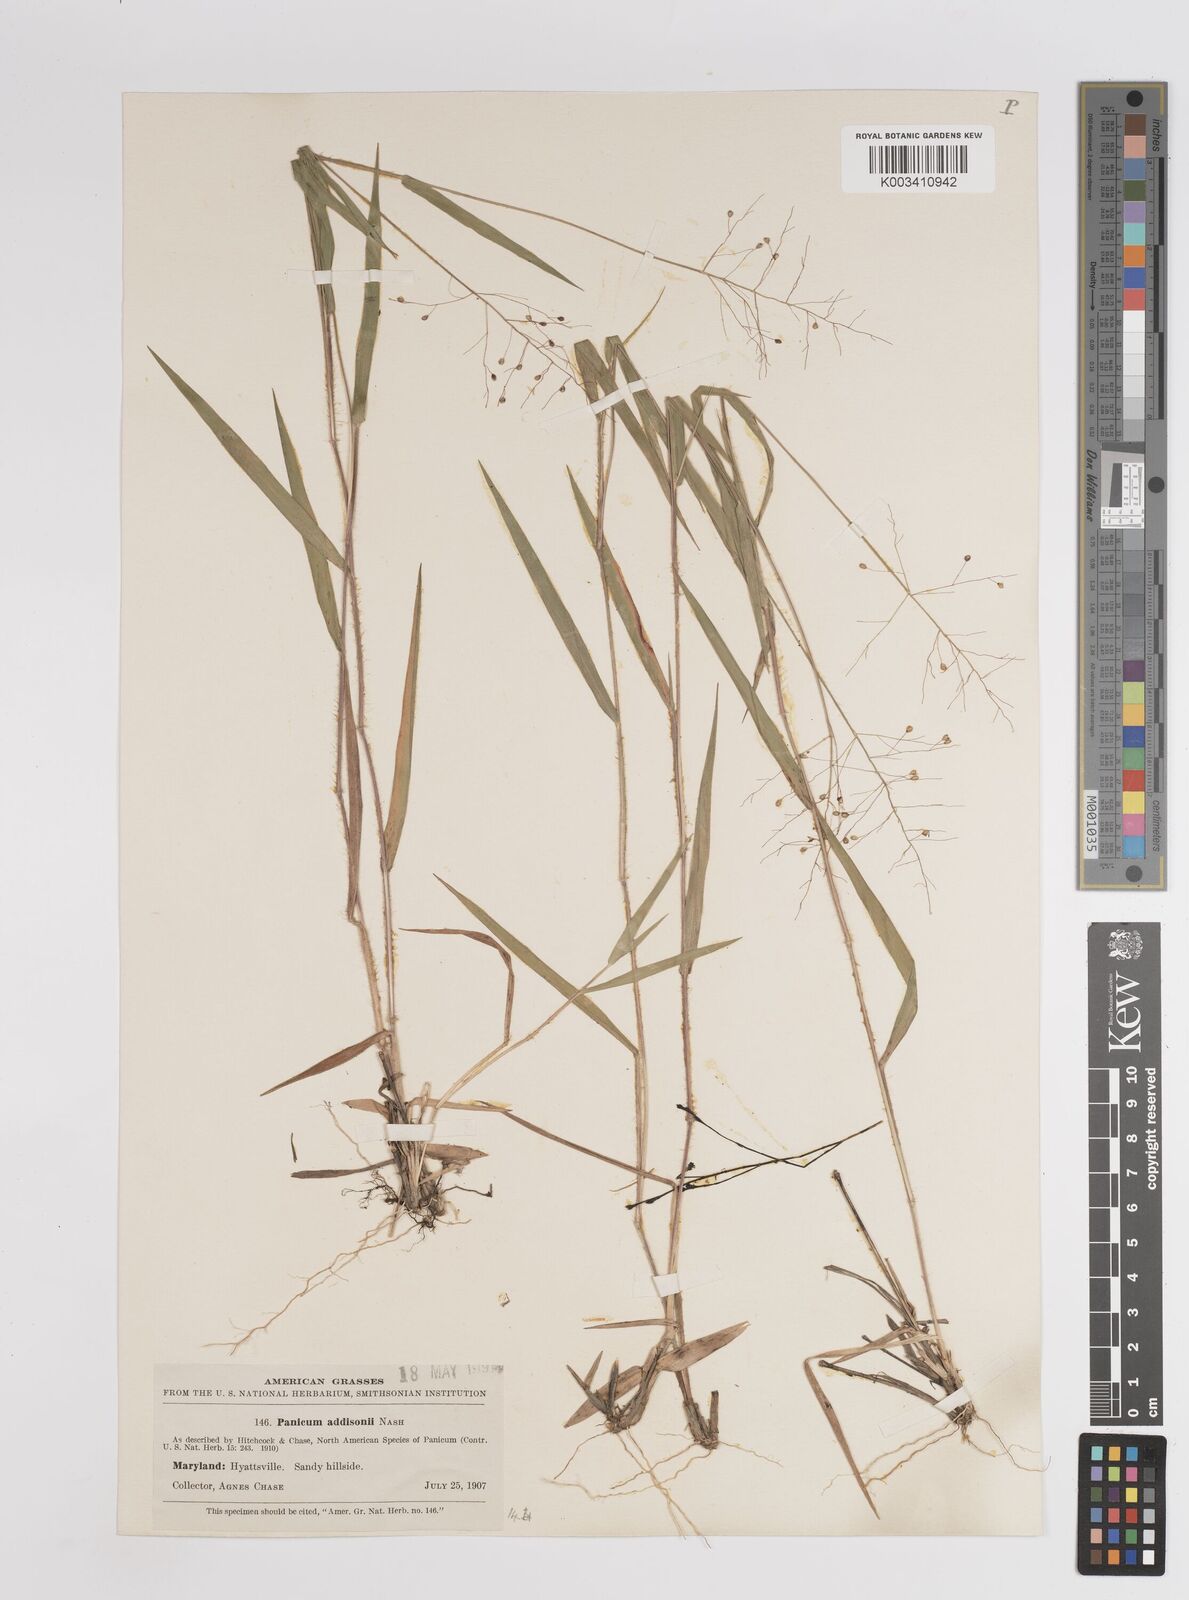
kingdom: Plantae
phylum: Tracheophyta
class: Liliopsida
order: Poales
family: Poaceae
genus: Dichanthelium
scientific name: Dichanthelium commonsianum
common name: Commons' panicgrass
